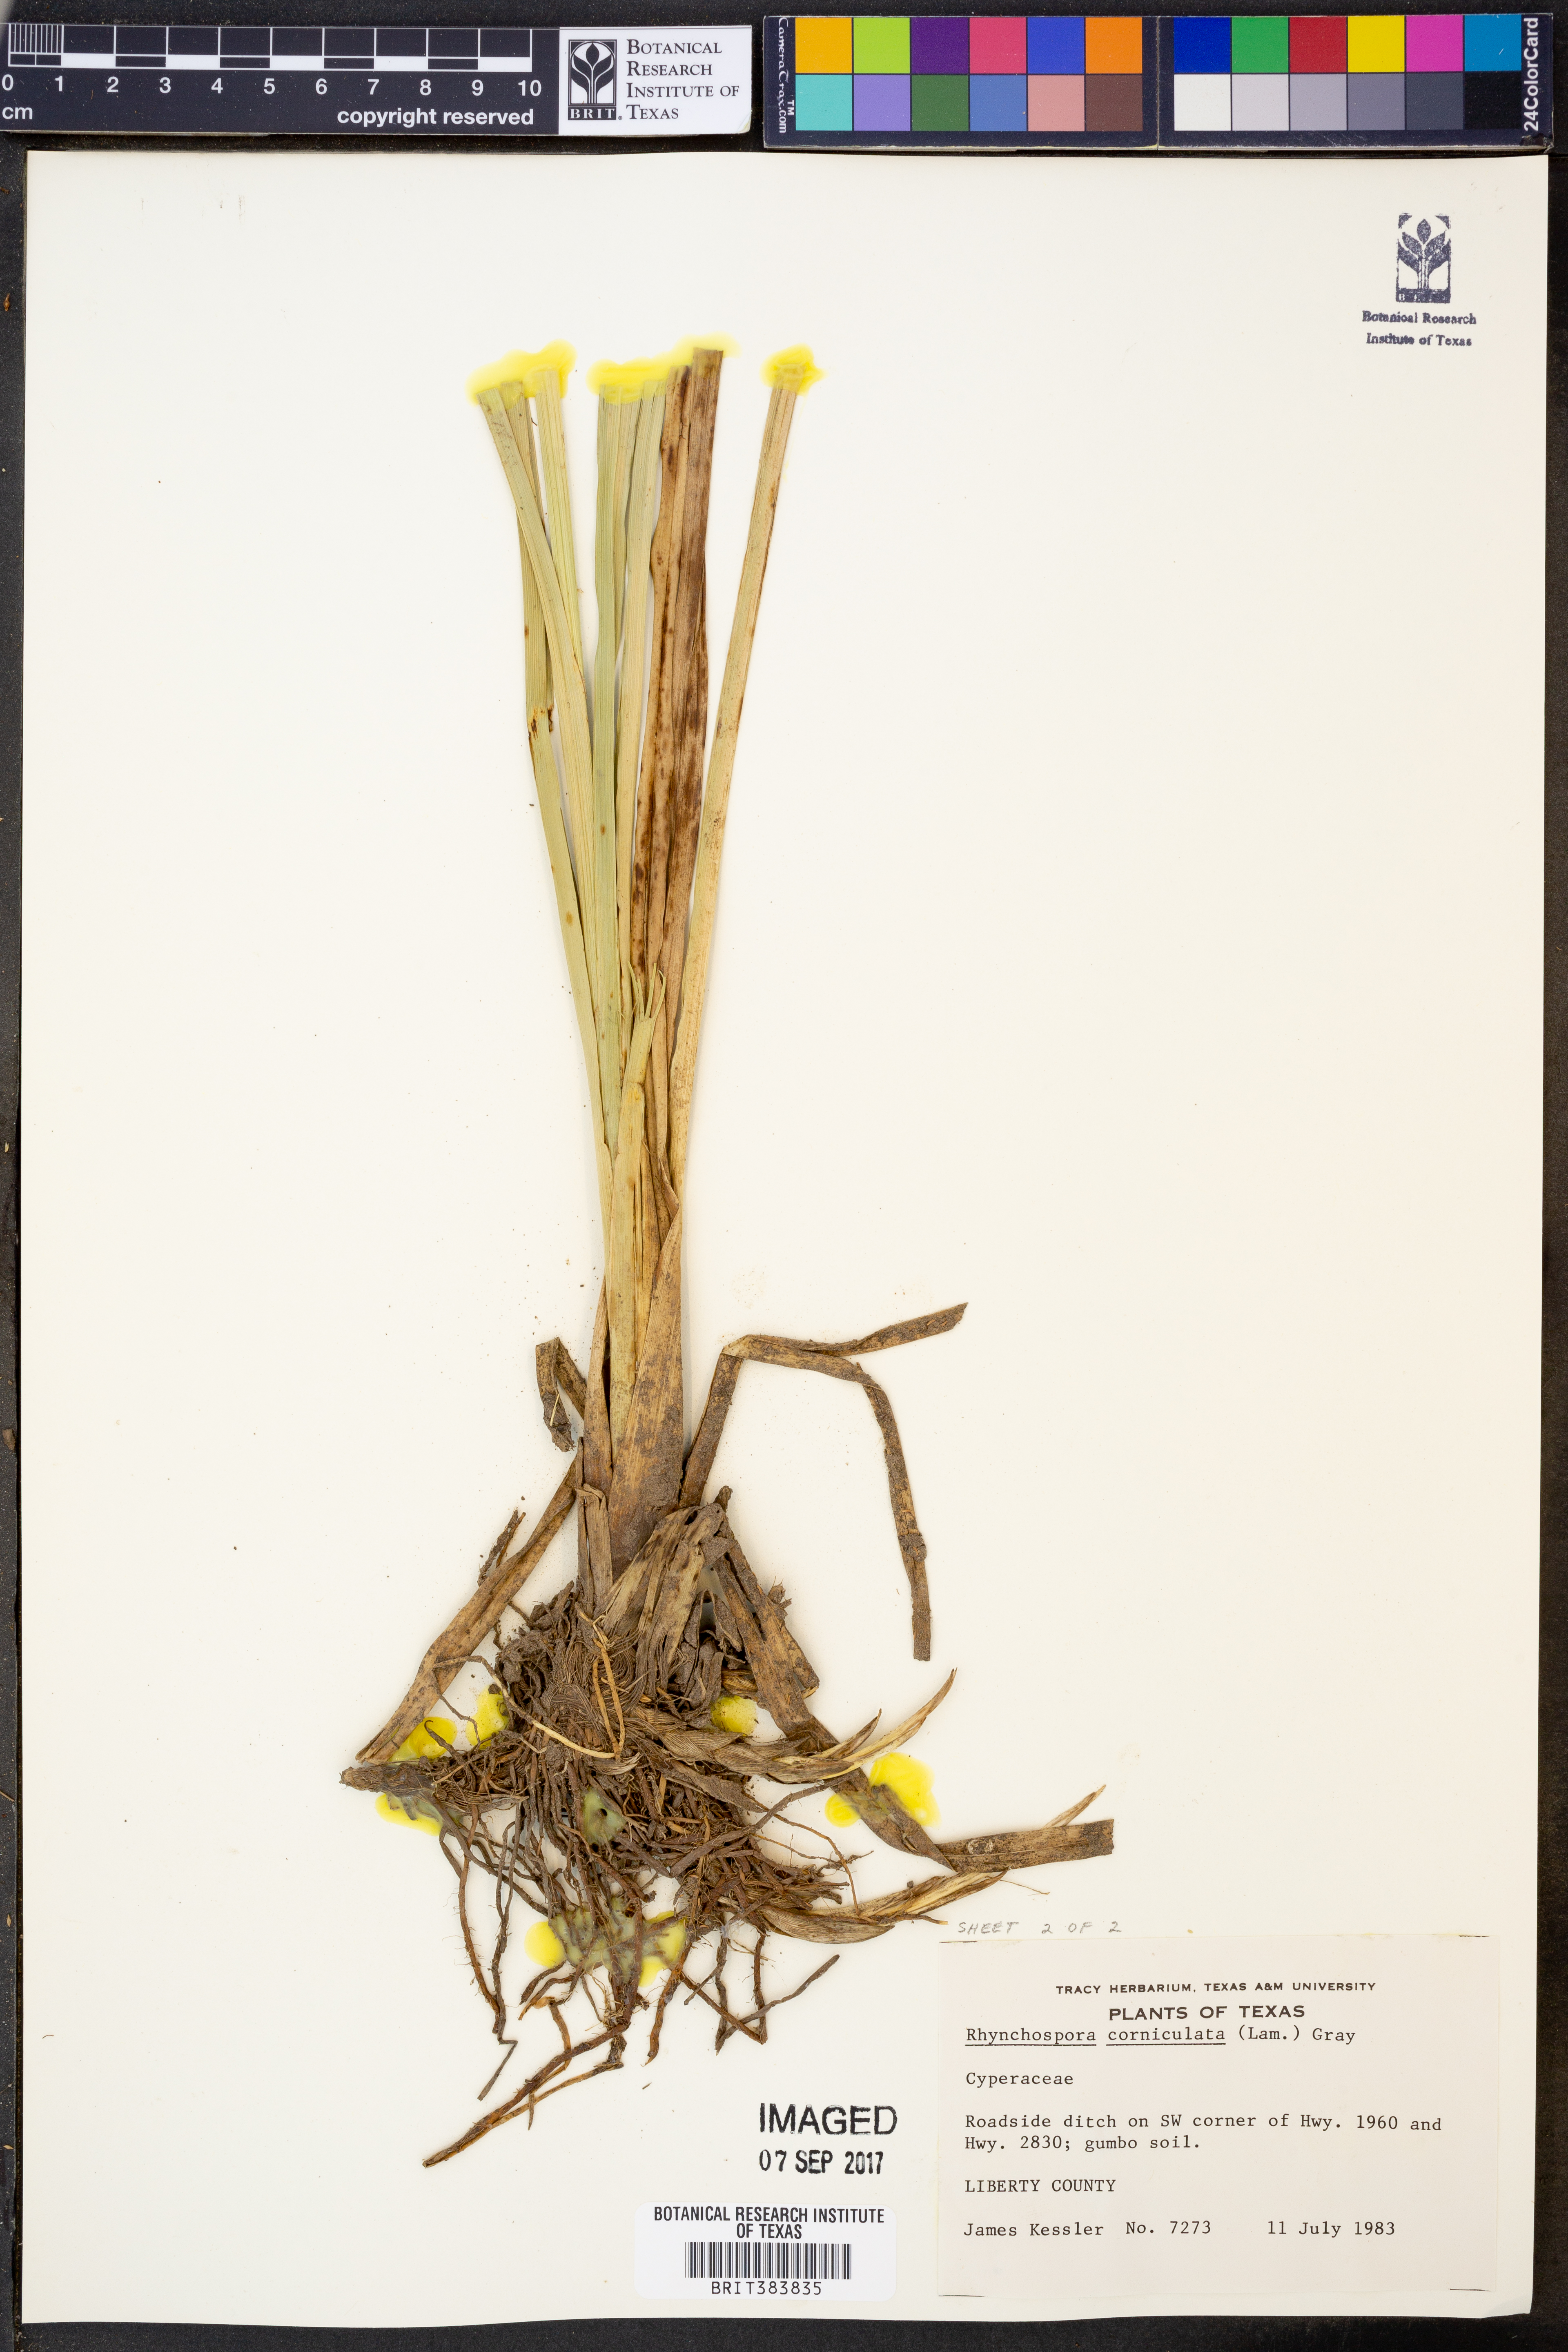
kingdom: Plantae
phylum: Tracheophyta
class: Liliopsida
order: Poales
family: Cyperaceae
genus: Rhynchospora
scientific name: Rhynchospora corniculata
